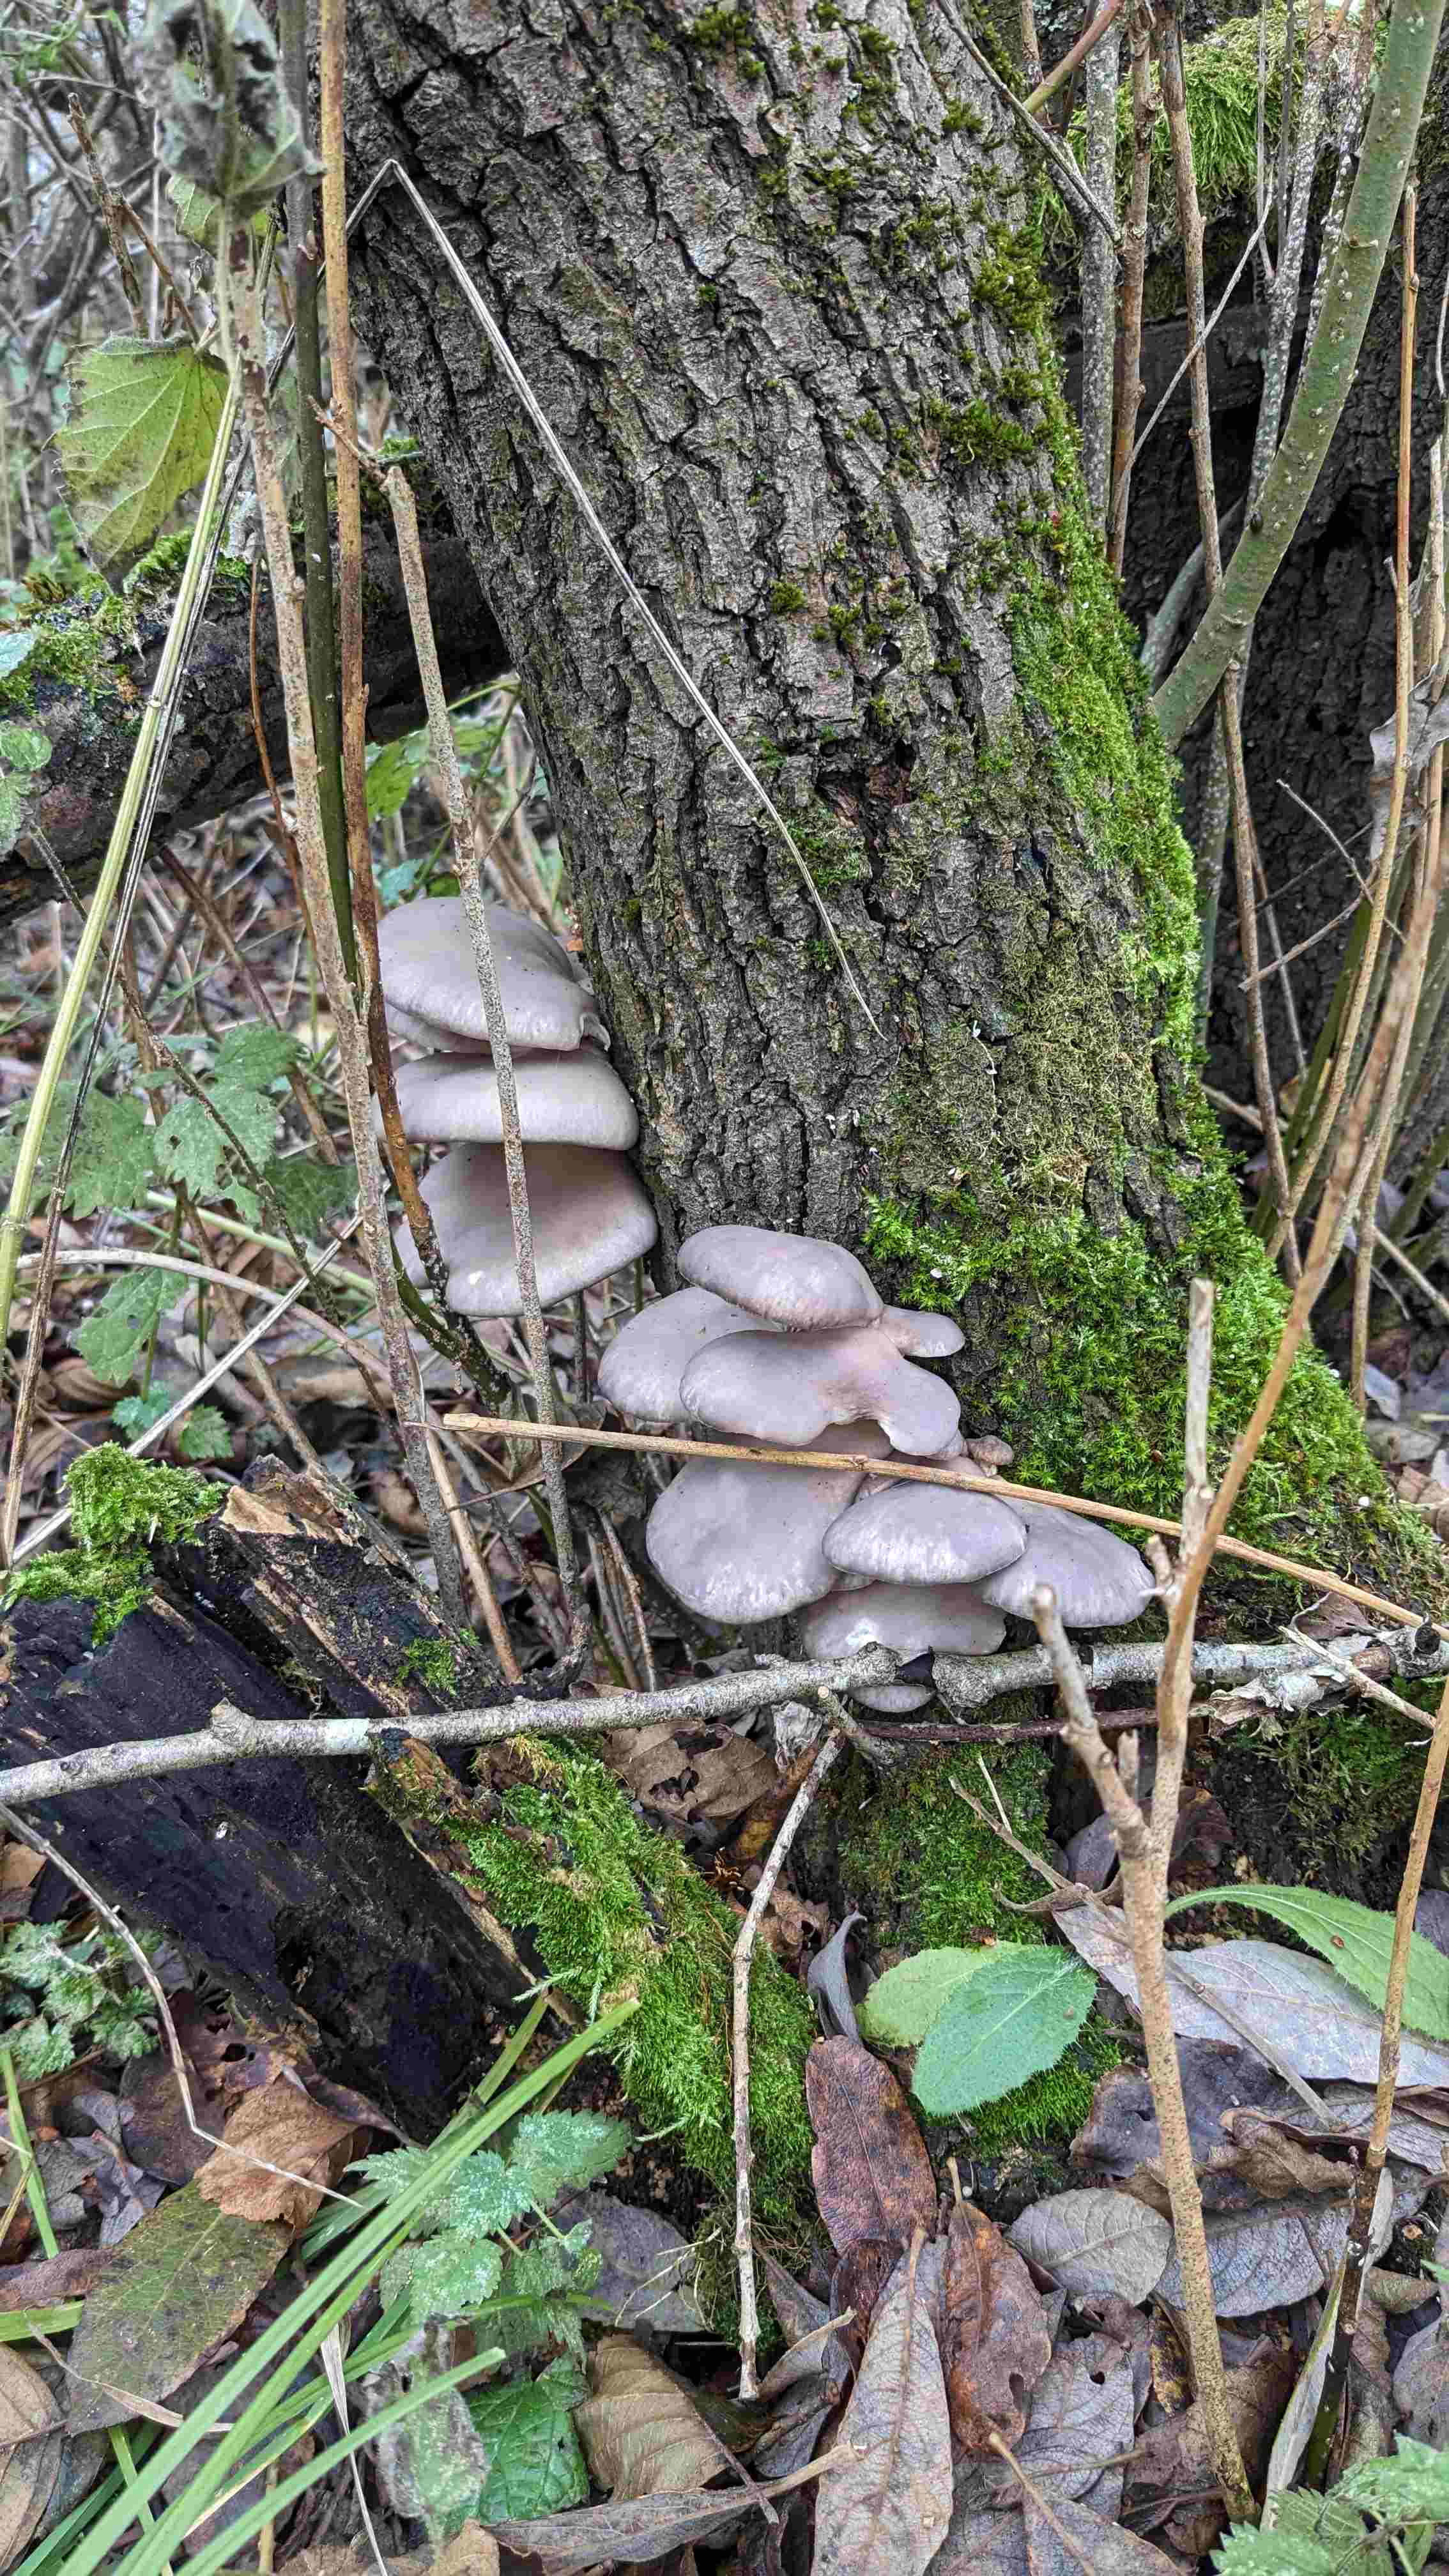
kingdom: Fungi
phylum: Basidiomycota
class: Agaricomycetes
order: Agaricales
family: Pleurotaceae
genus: Pleurotus
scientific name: Pleurotus ostreatus
